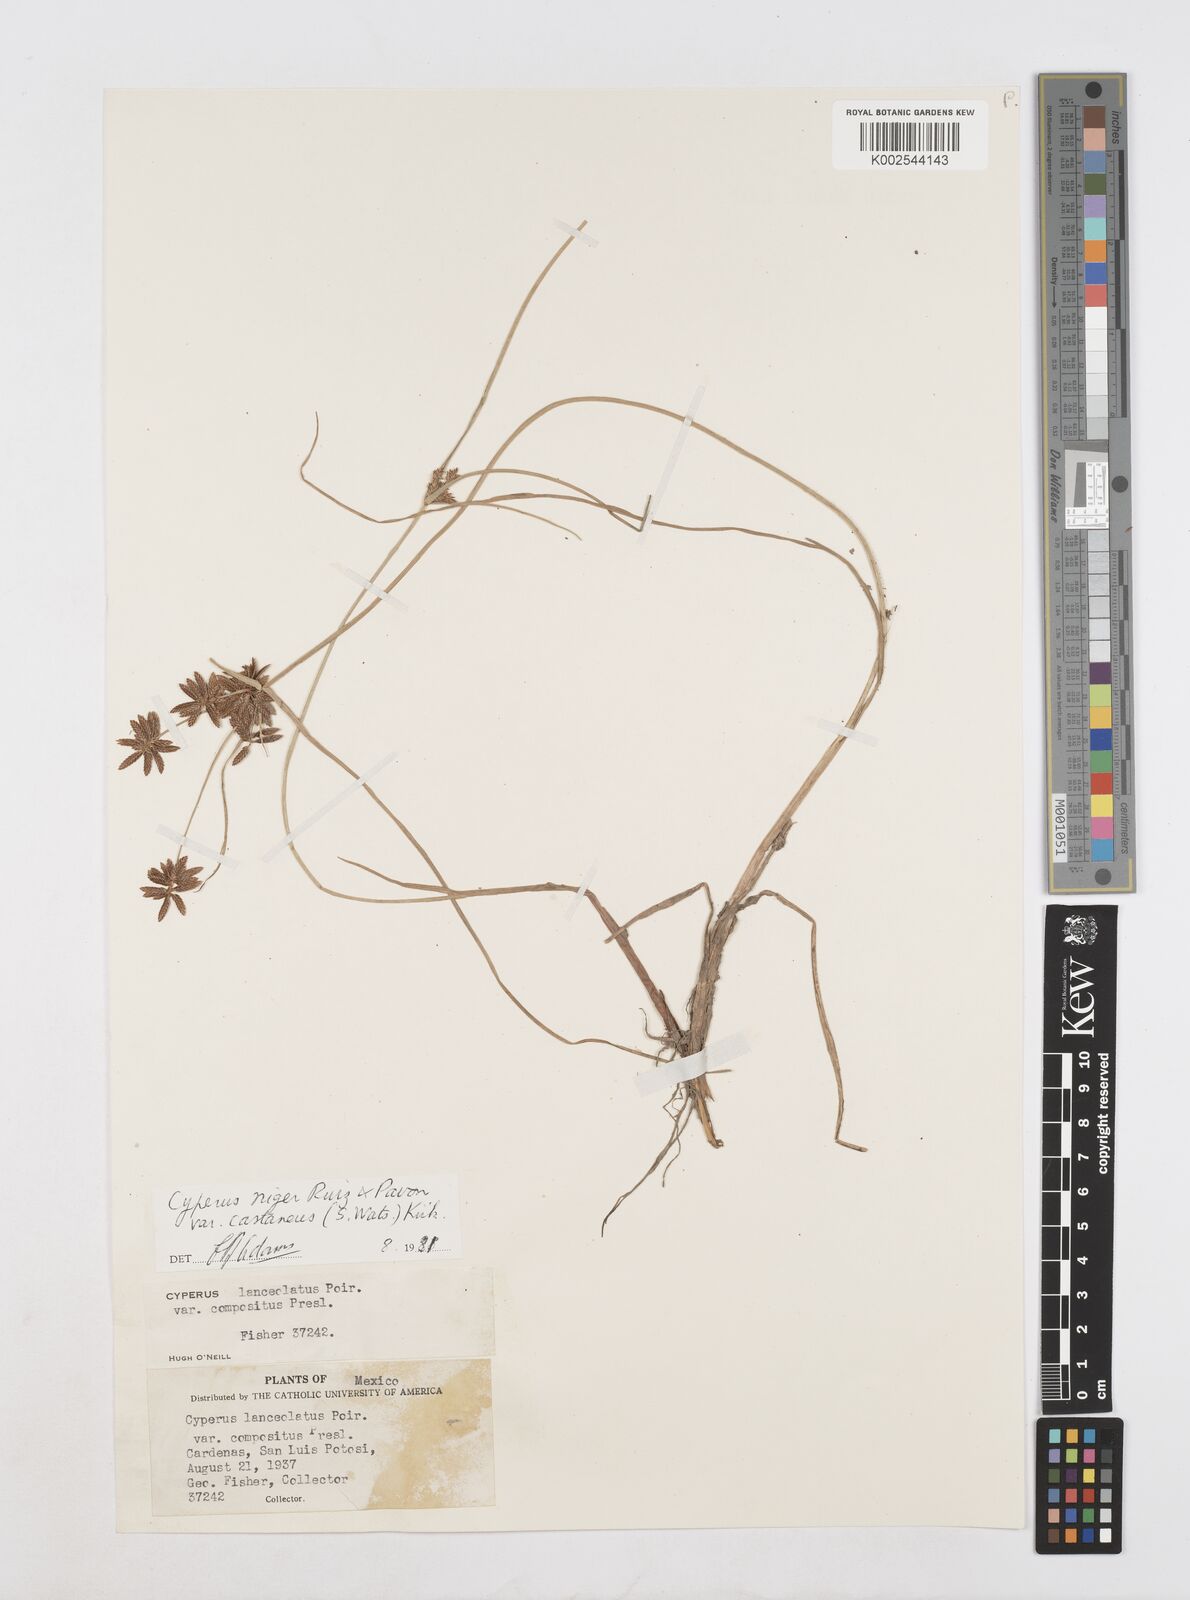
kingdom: Plantae
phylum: Tracheophyta
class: Liliopsida
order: Poales
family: Cyperaceae
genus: Cyperus
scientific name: Cyperus melanostachyus
